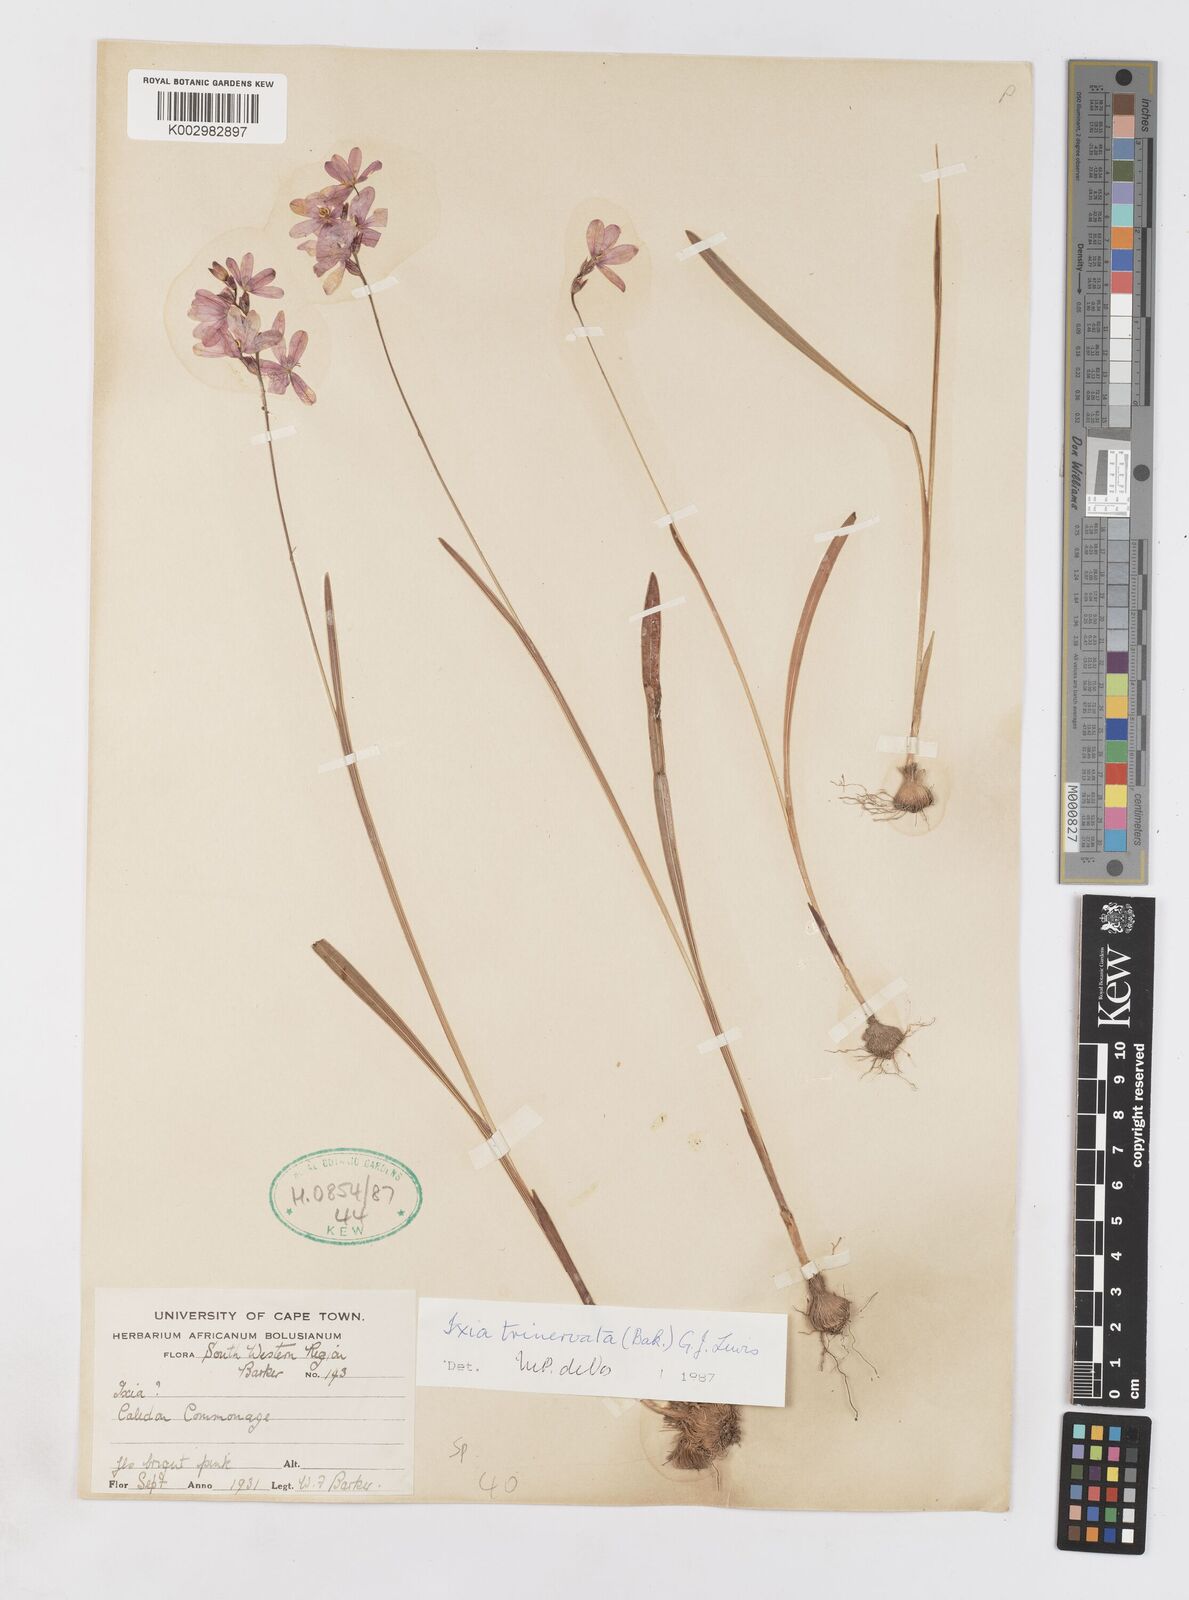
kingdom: Plantae
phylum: Tracheophyta
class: Liliopsida
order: Asparagales
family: Iridaceae
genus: Ixia
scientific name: Ixia trinervata
